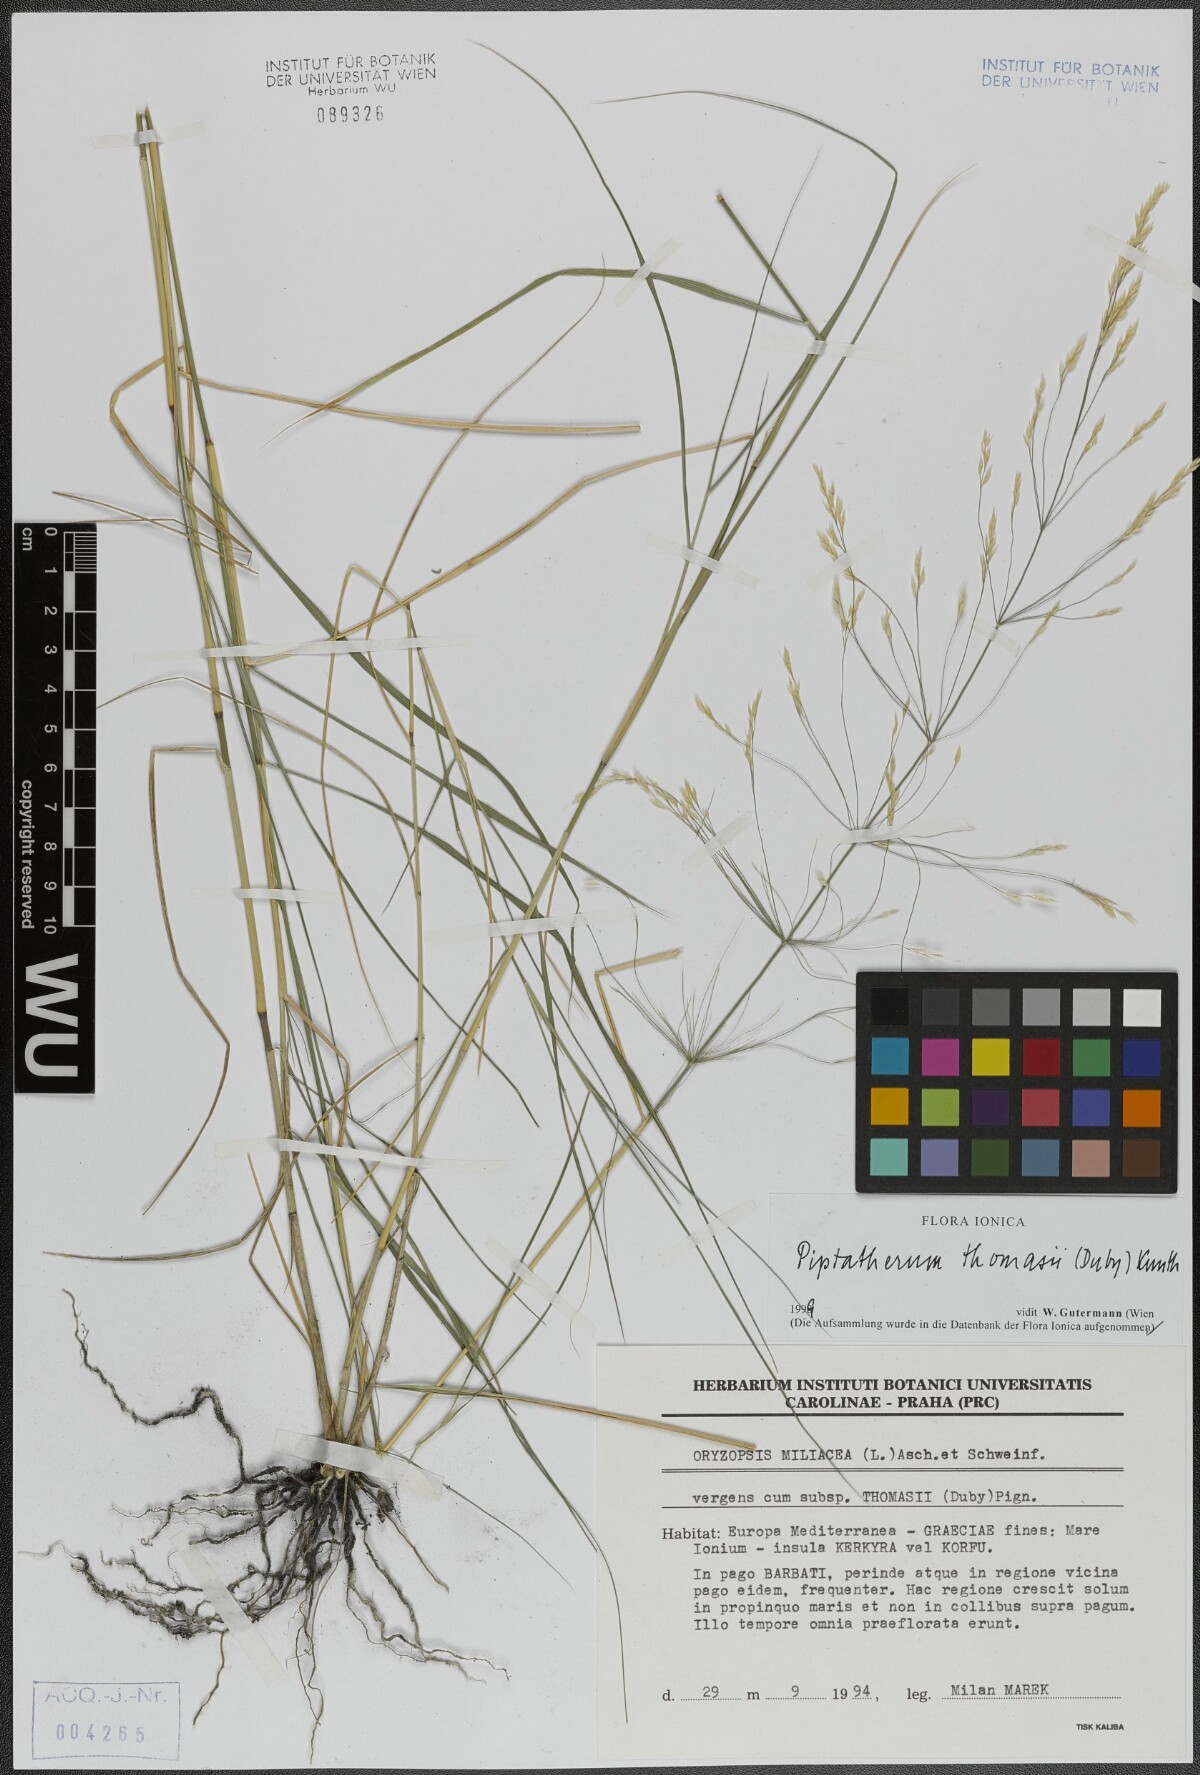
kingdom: Plantae
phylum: Tracheophyta
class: Liliopsida
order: Poales
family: Poaceae
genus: Oloptum
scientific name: Oloptum thomasii
